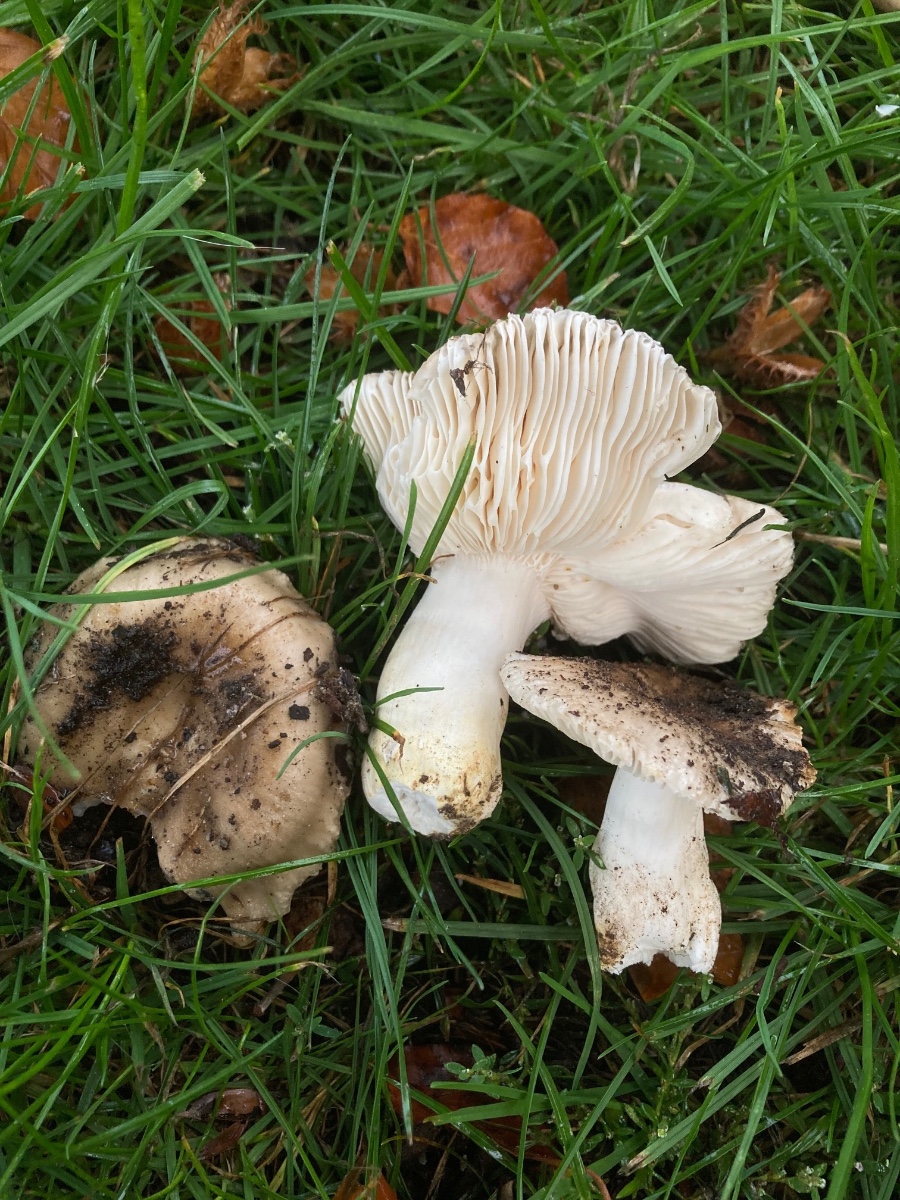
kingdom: Fungi
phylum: Basidiomycota
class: Agaricomycetes
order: Russulales
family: Russulaceae
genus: Russula
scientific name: Russula insignis
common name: gulfodet kam-skørhat
